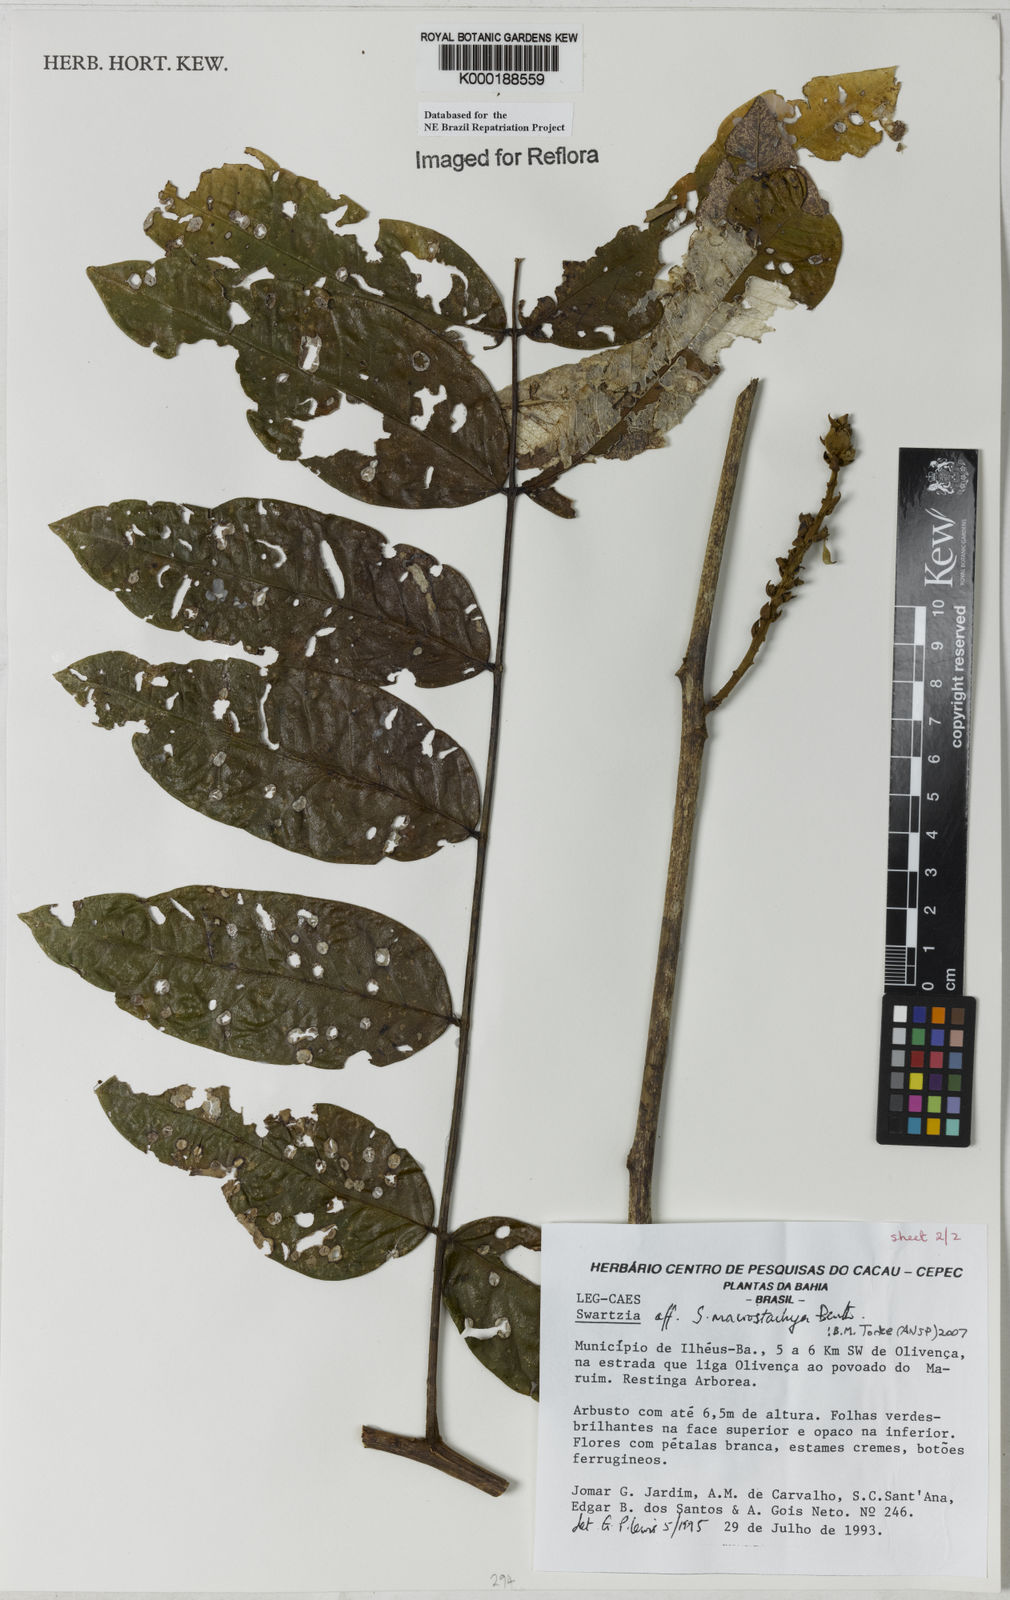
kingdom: Plantae
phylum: Tracheophyta
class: Magnoliopsida
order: Fabales
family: Fabaceae
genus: Swartzia
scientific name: Swartzia
